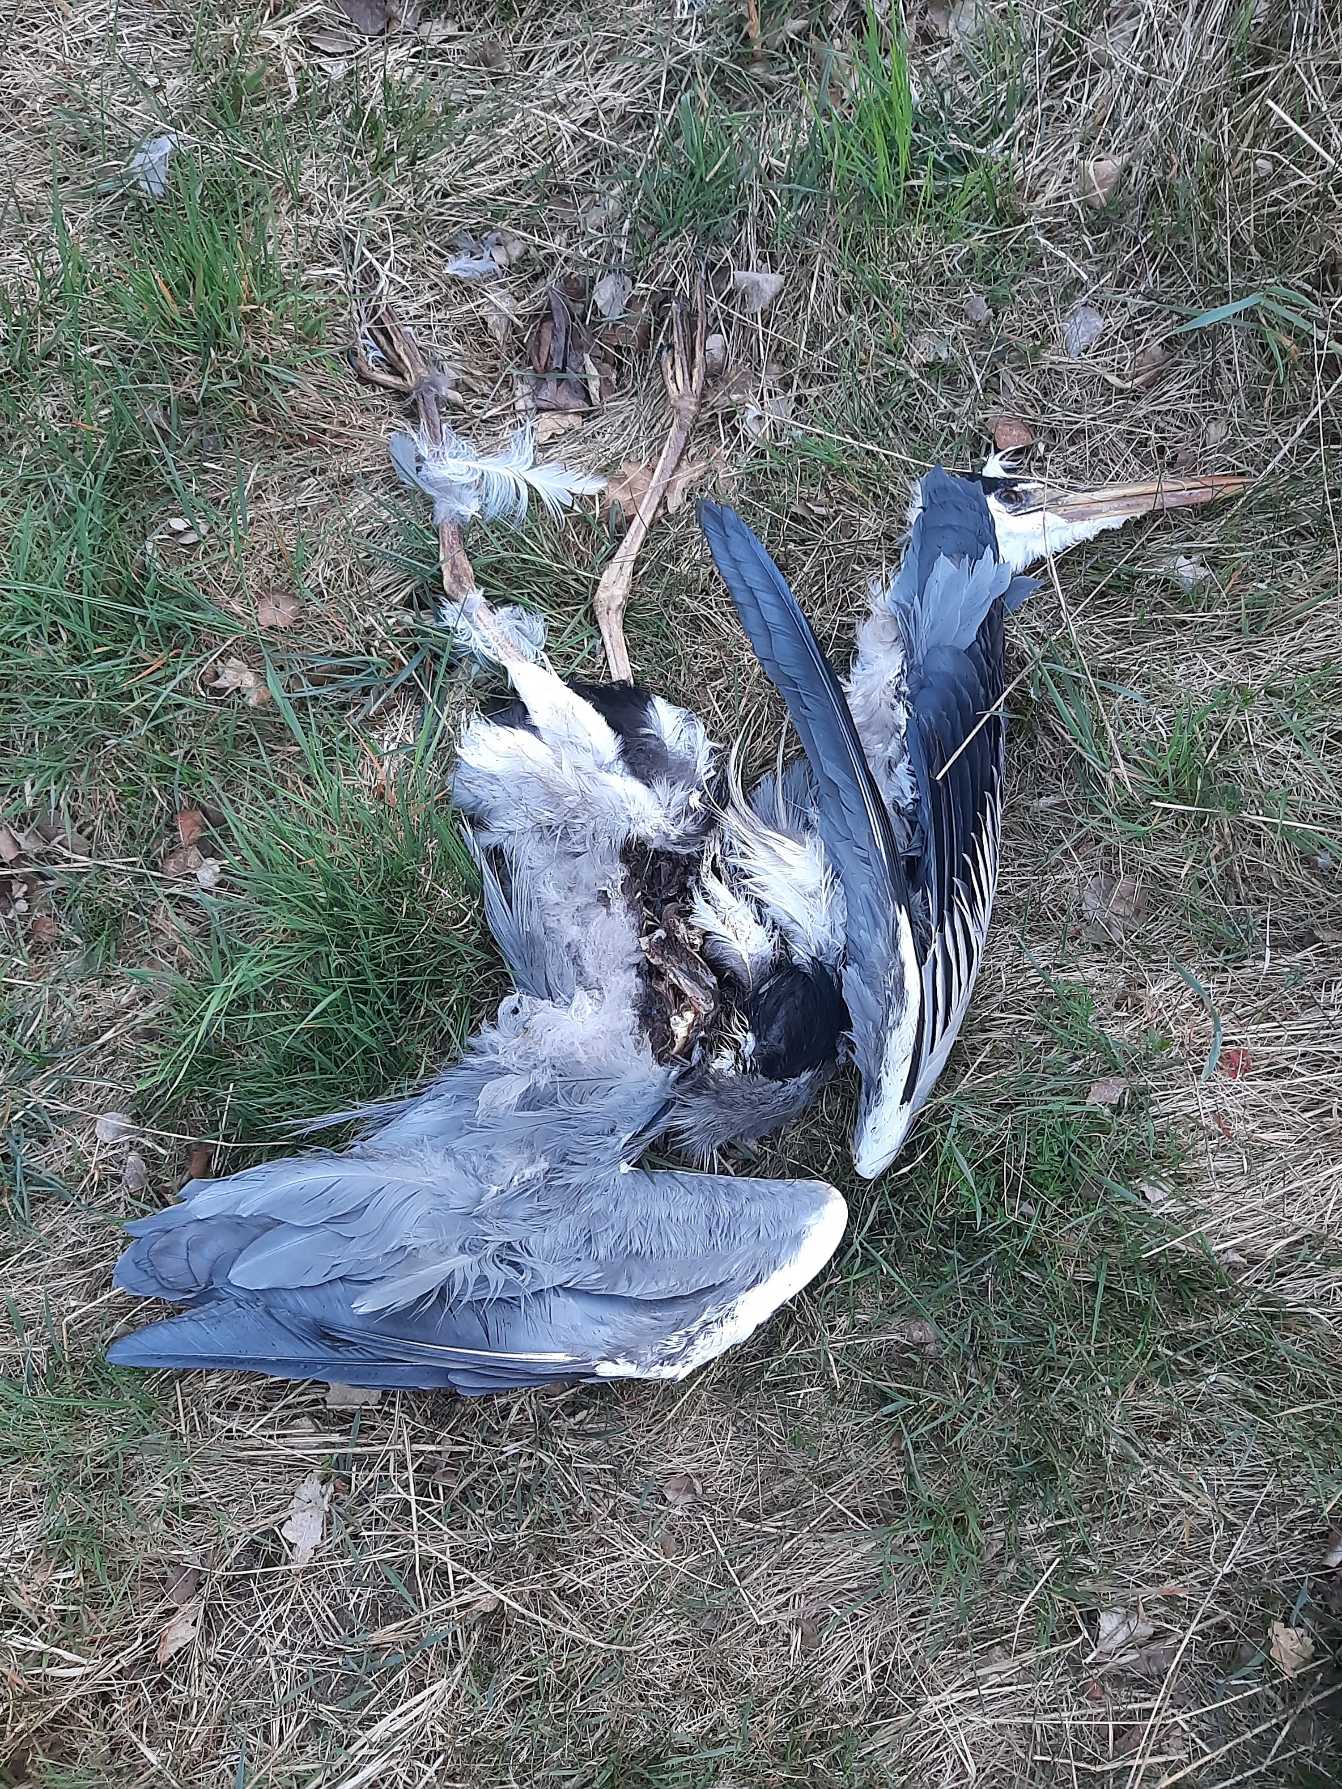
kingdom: Animalia
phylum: Chordata
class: Aves
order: Pelecaniformes
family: Ardeidae
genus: Ardea
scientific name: Ardea cinerea
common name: Fiskehejre
